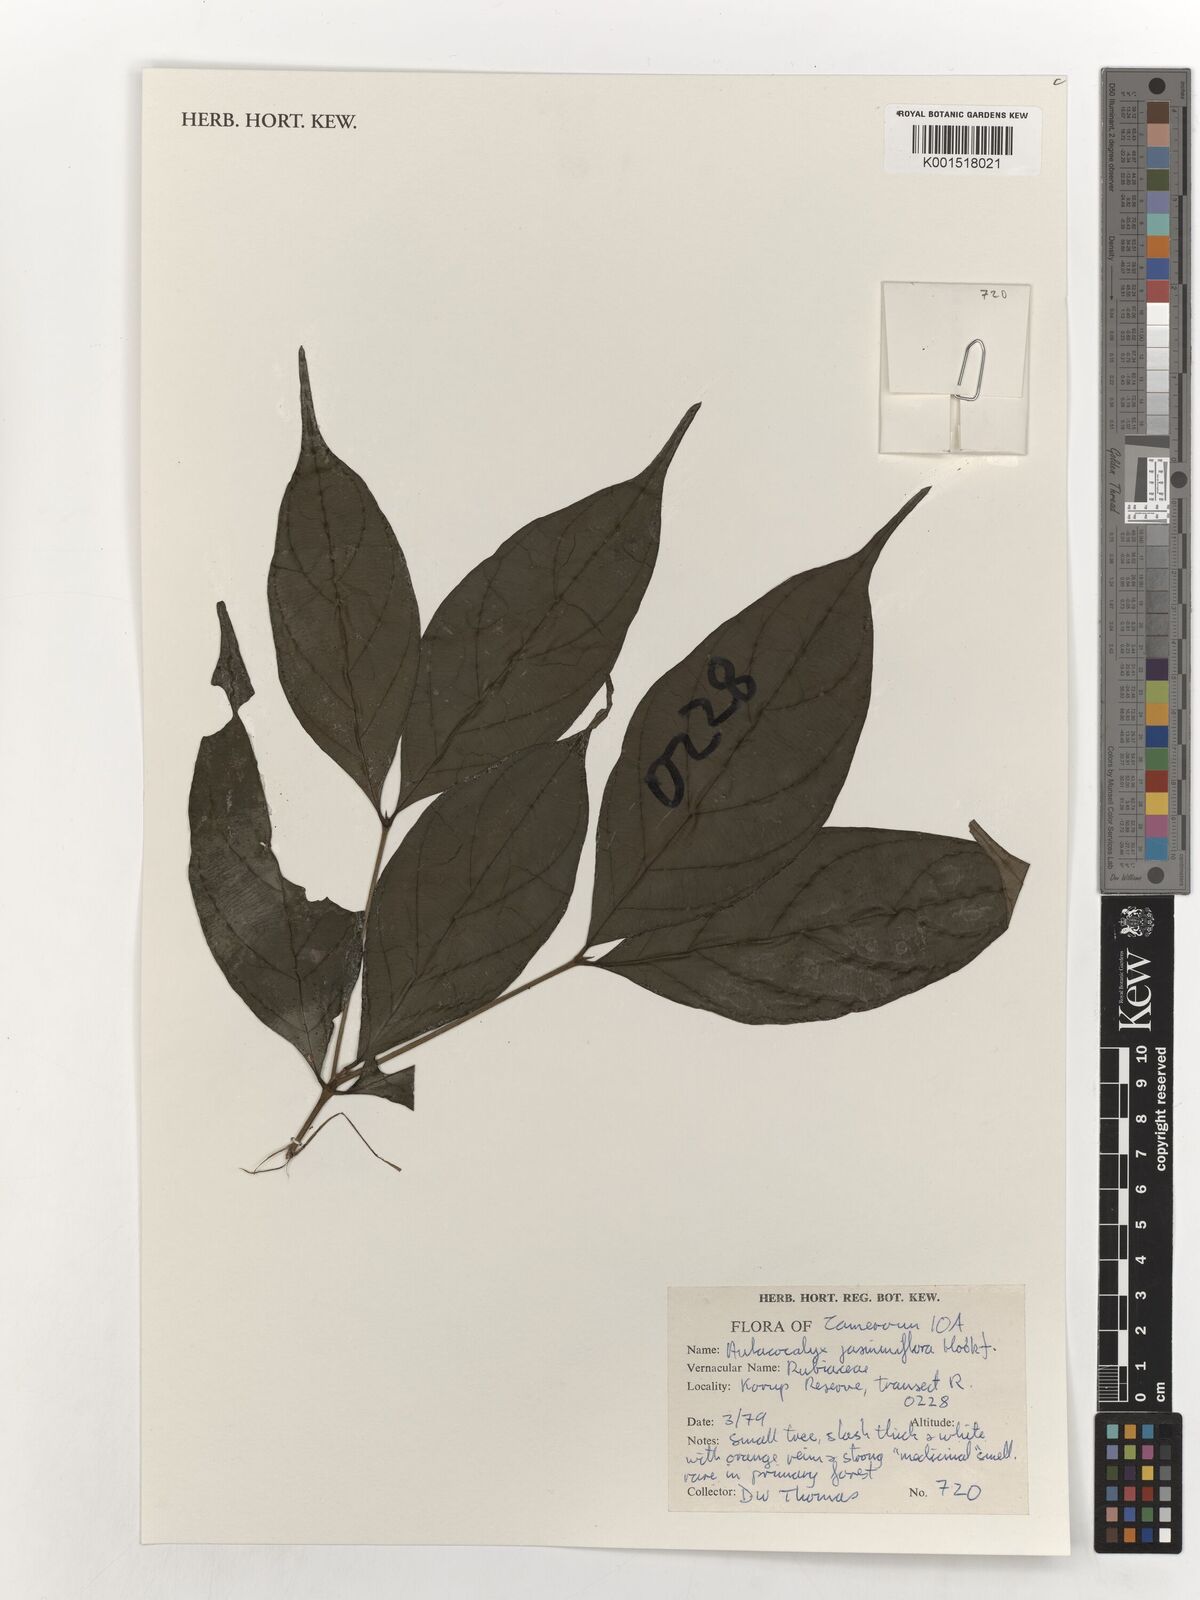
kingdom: Plantae
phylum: Tracheophyta
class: Magnoliopsida
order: Gentianales
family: Rubiaceae
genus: Aulacocalyx
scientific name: Aulacocalyx jasminiflora
